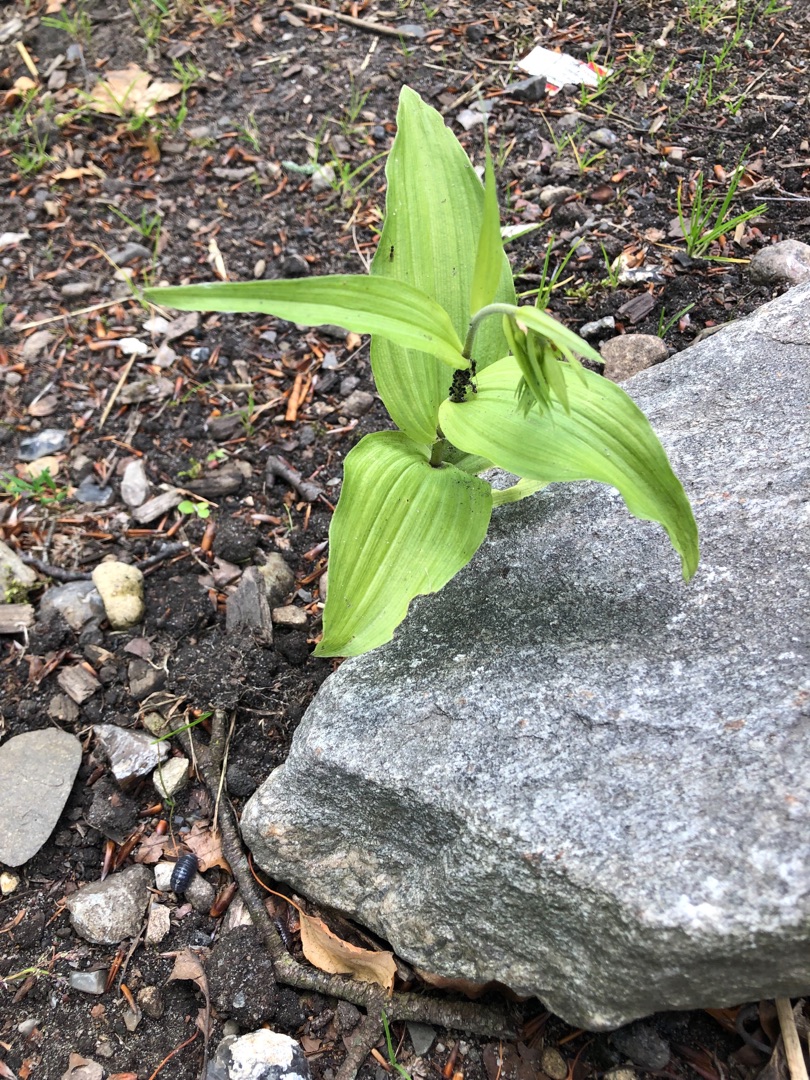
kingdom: Plantae
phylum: Tracheophyta
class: Liliopsida
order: Asparagales
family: Orchidaceae
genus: Epipactis
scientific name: Epipactis helleborine
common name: Skov-hullæbe
